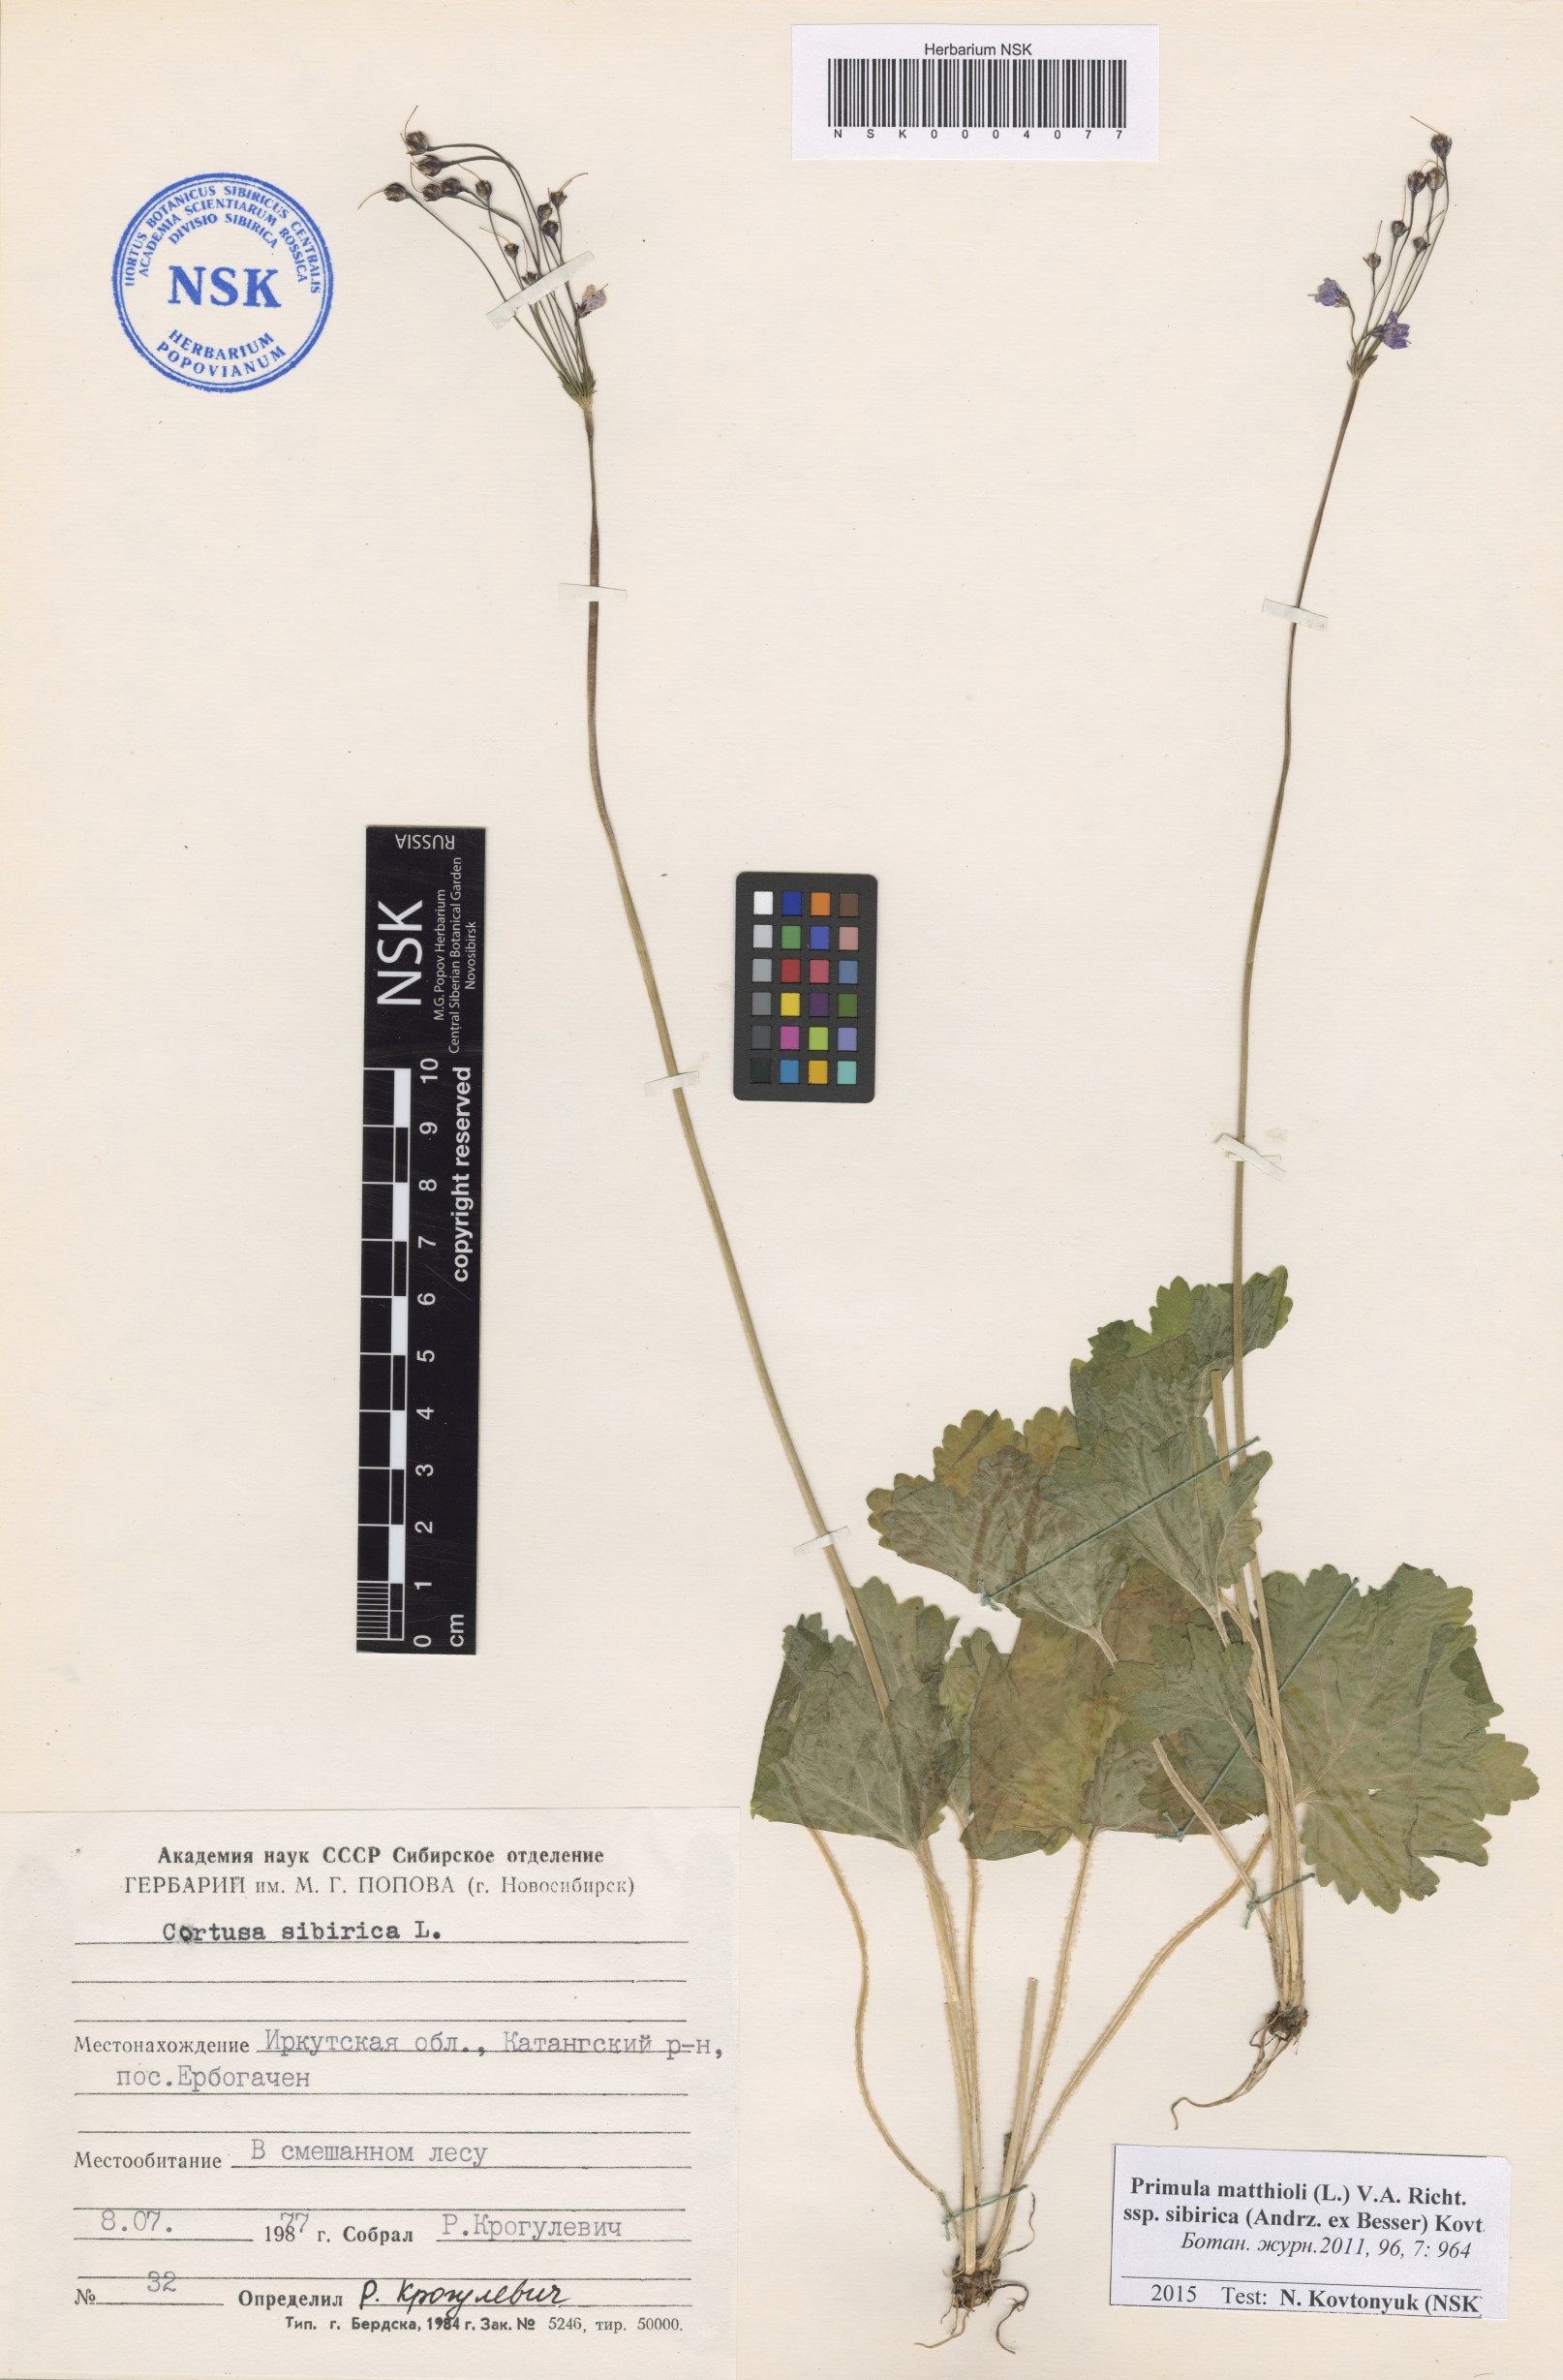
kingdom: Plantae
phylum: Tracheophyta
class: Magnoliopsida
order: Ericales
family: Primulaceae
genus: Primula
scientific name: Primula matthioli
